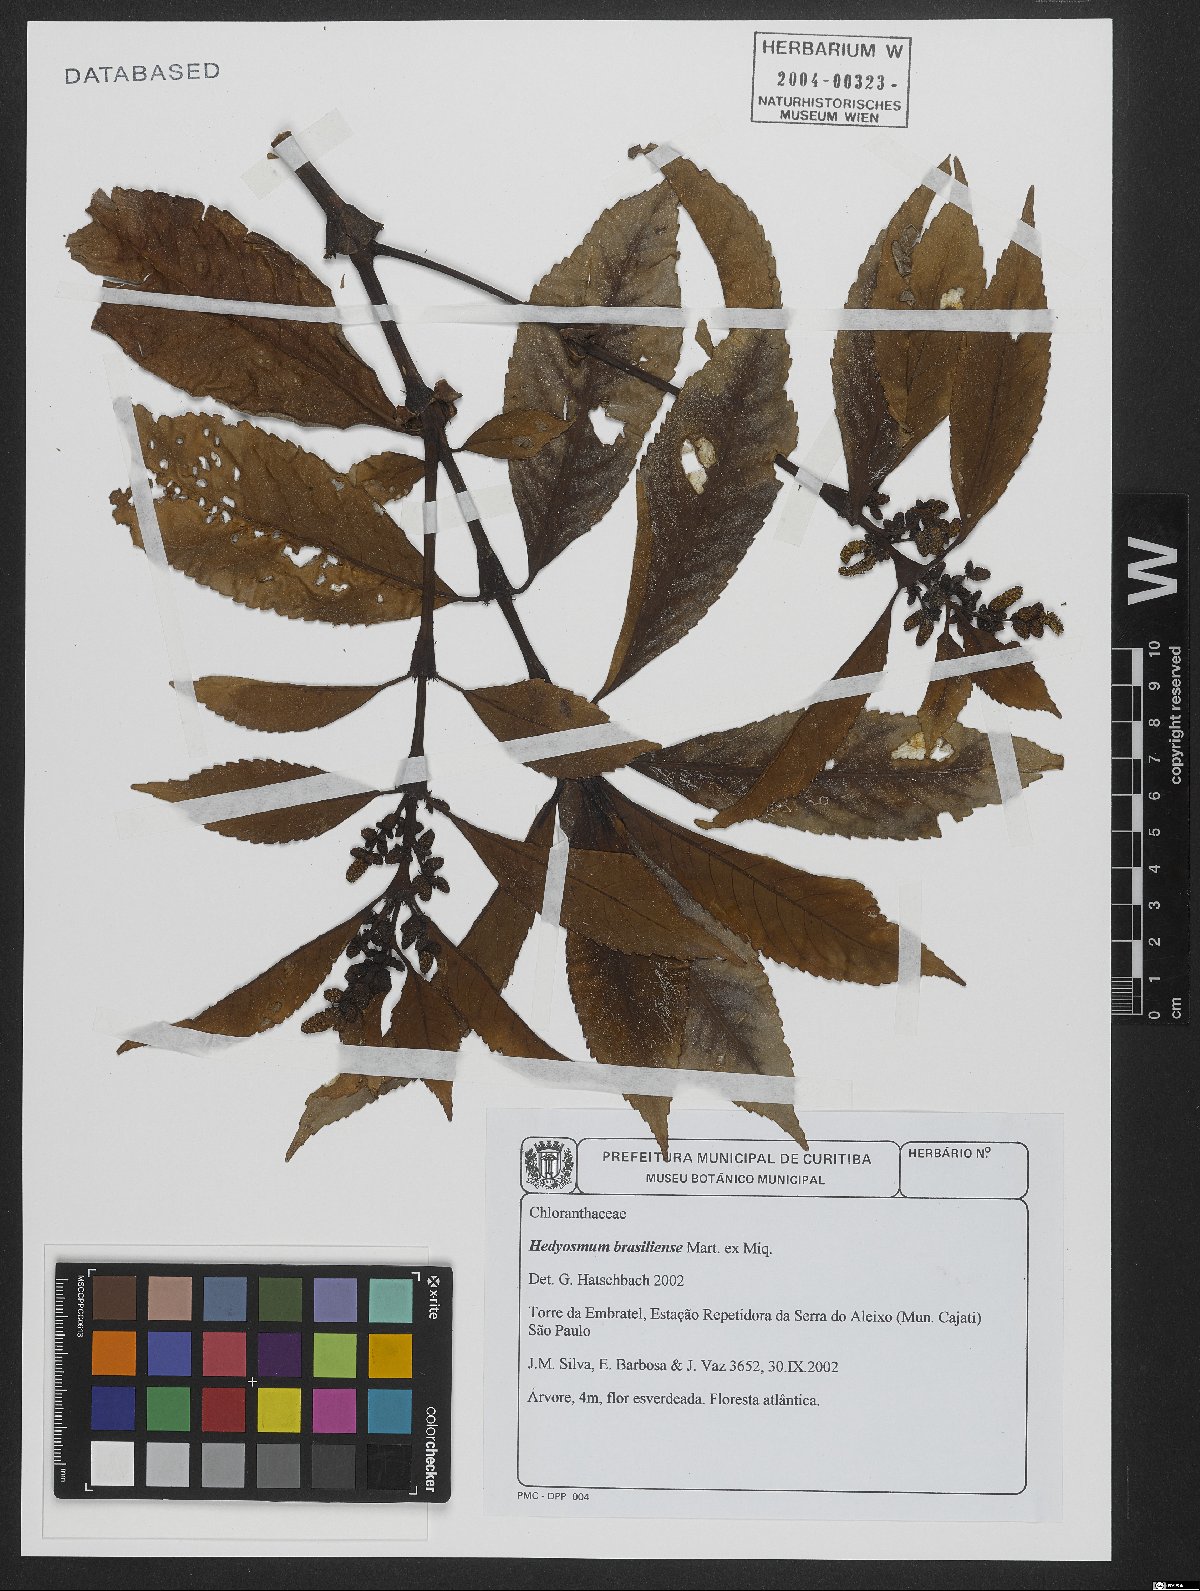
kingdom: Plantae
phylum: Tracheophyta
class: Magnoliopsida
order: Chloranthales
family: Chloranthaceae
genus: Hedyosmum
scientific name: Hedyosmum brasiliense
